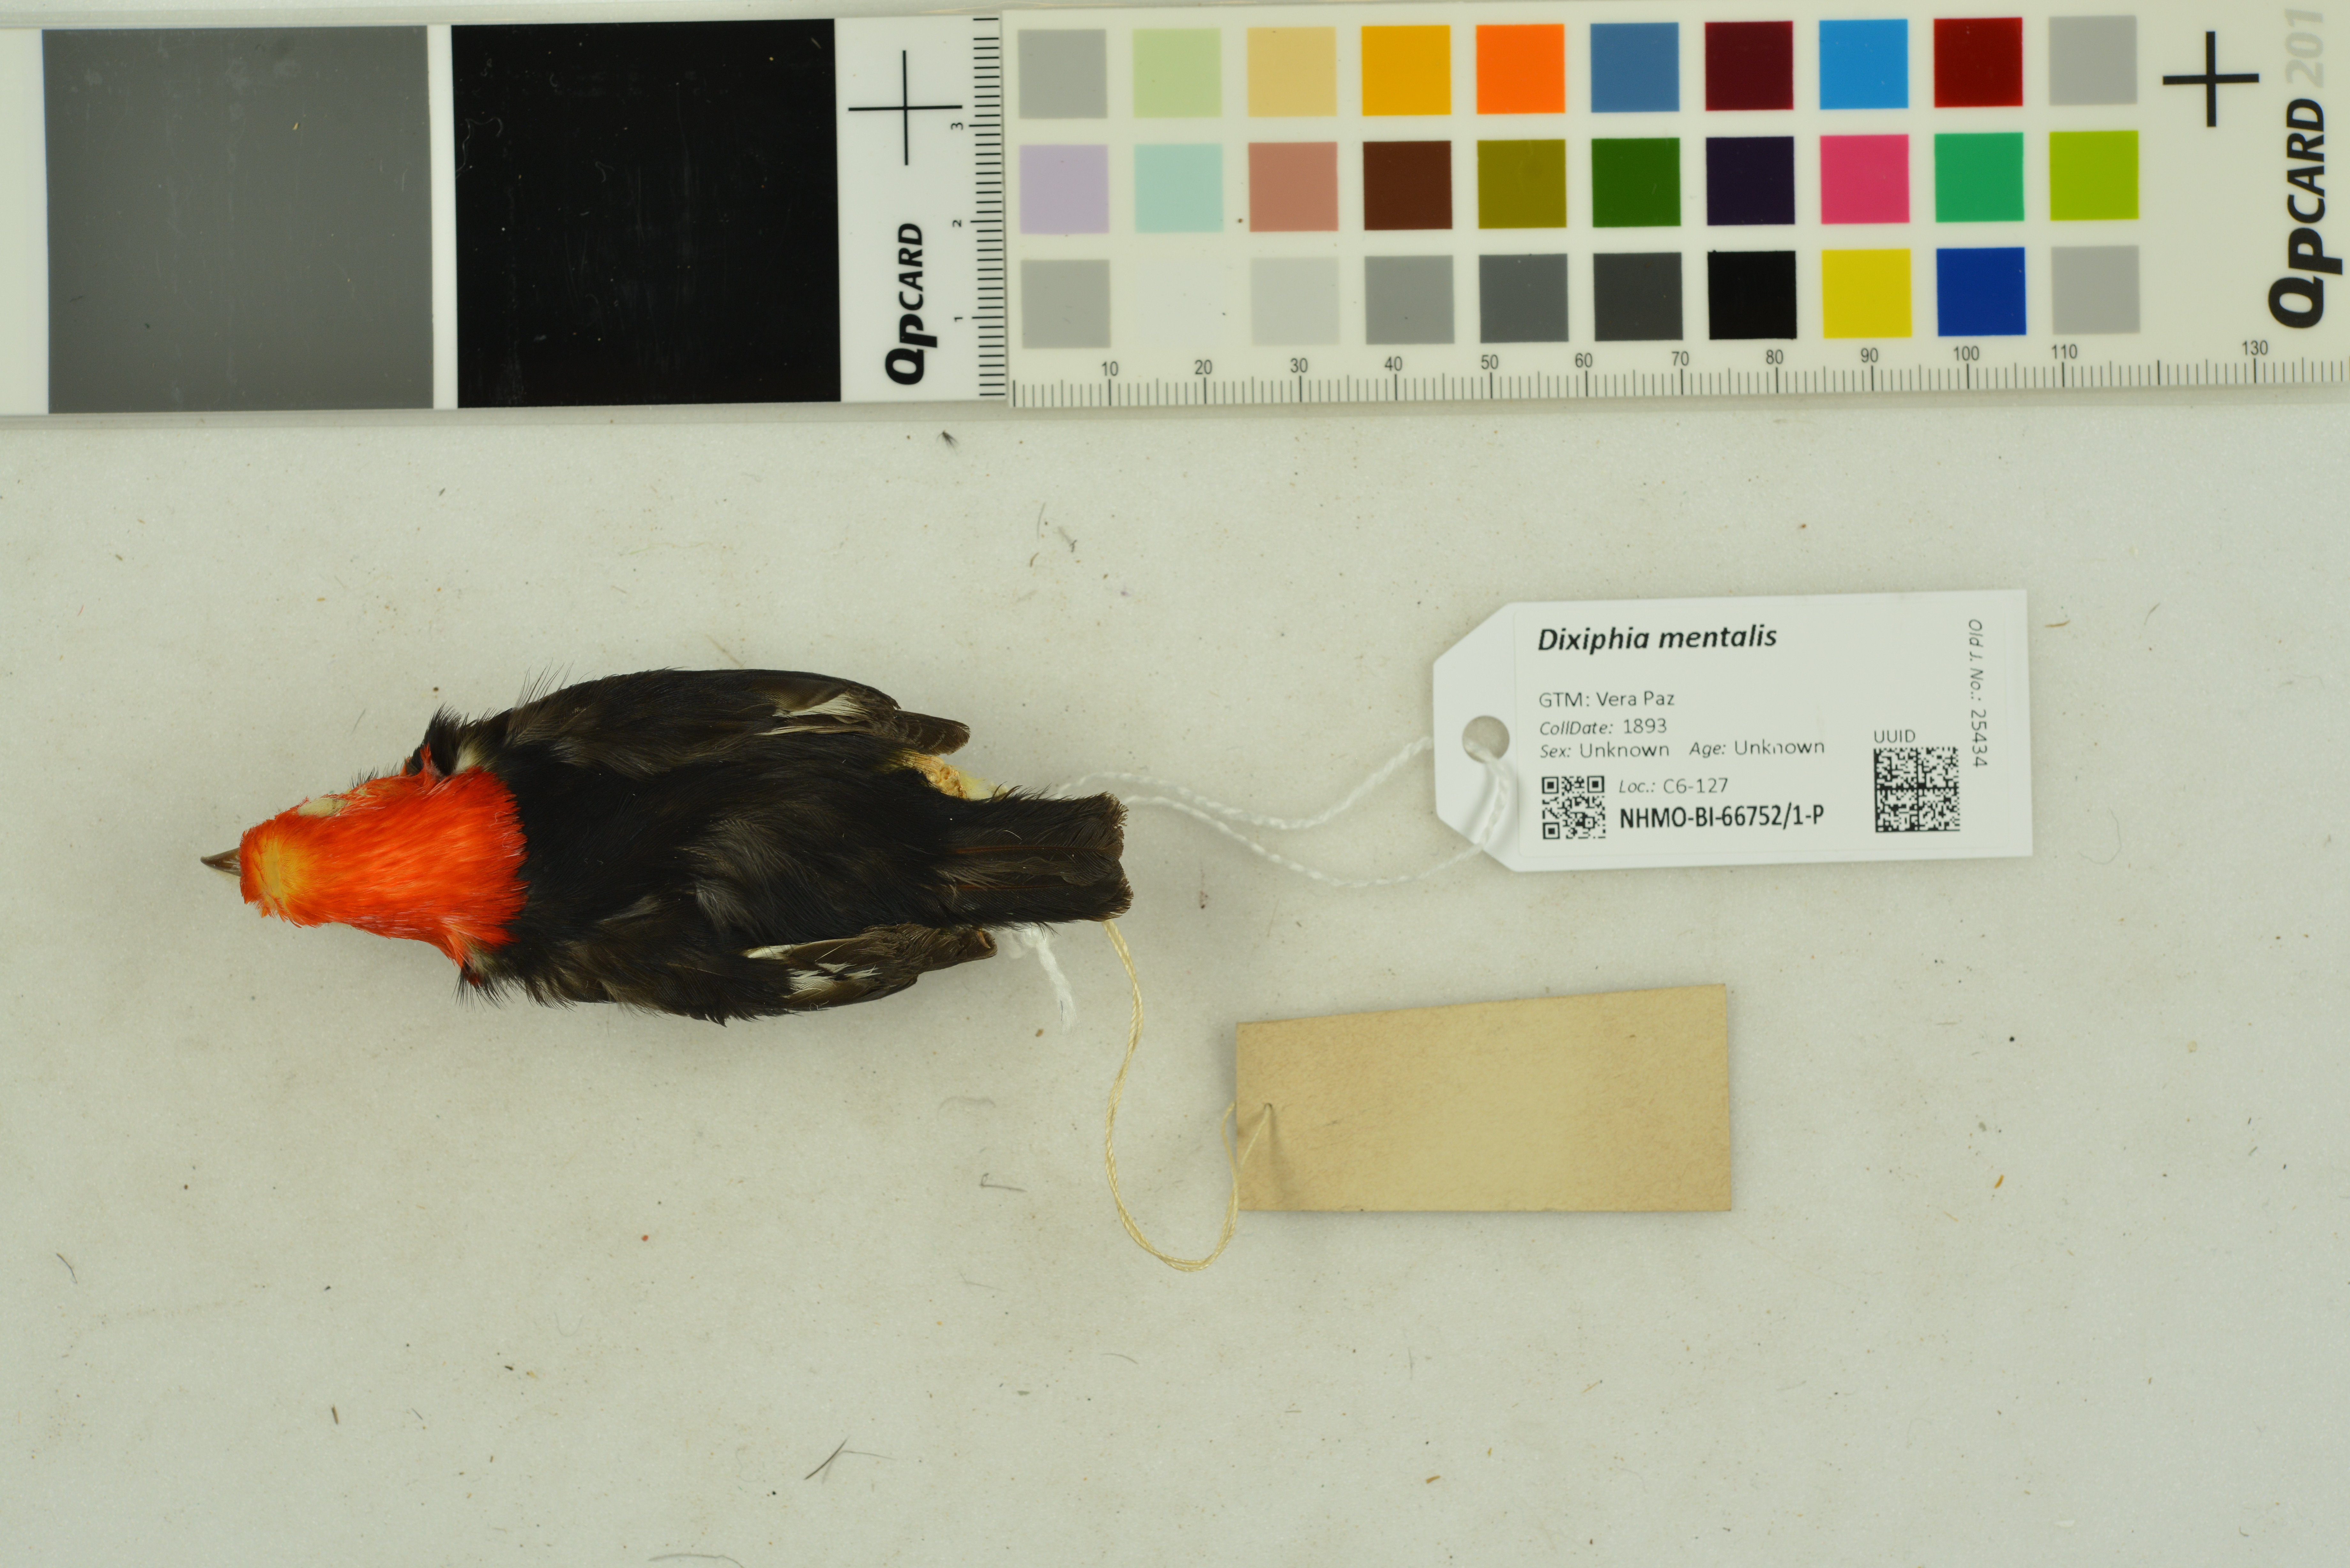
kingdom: Animalia
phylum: Chordata
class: Aves
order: Passeriformes
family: Pipridae
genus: Pipra
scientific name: Pipra mentalis
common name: Red-capped manakin
